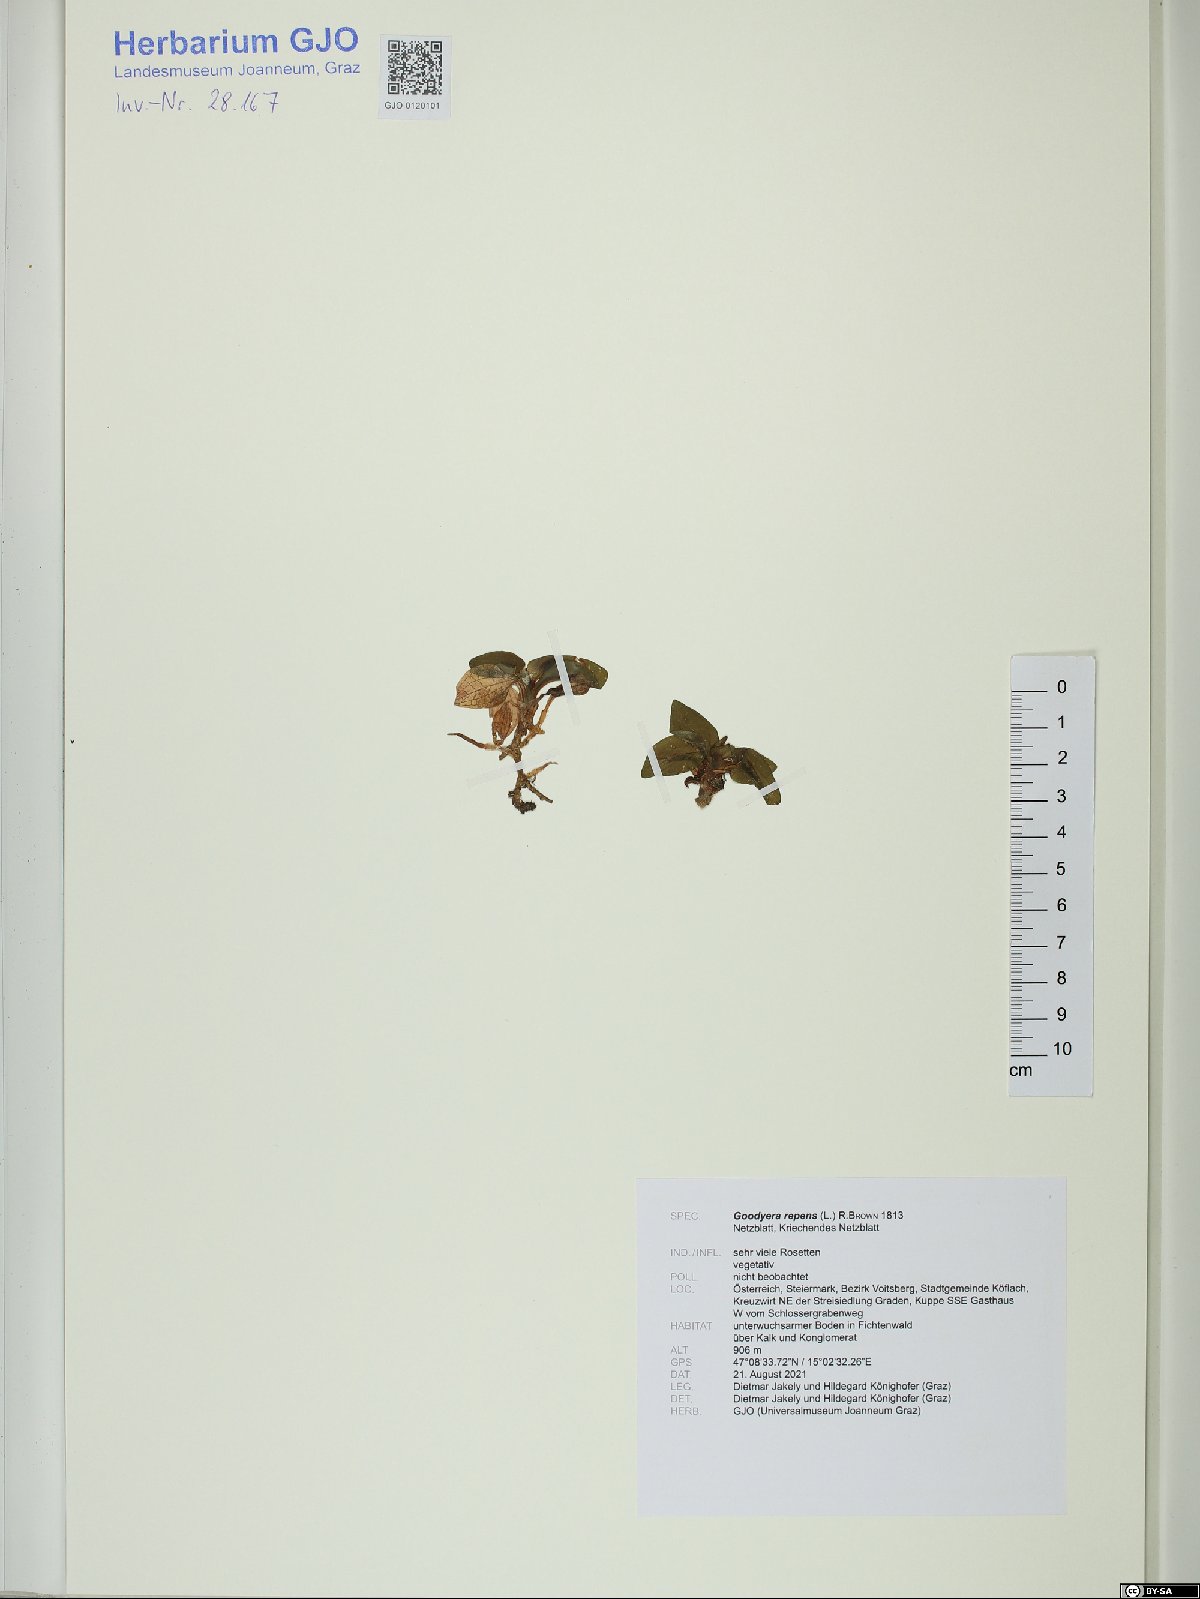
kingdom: Plantae
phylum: Tracheophyta
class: Liliopsida
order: Asparagales
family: Orchidaceae
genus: Goodyera
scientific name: Goodyera repens
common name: Creeping lady's-tresses
